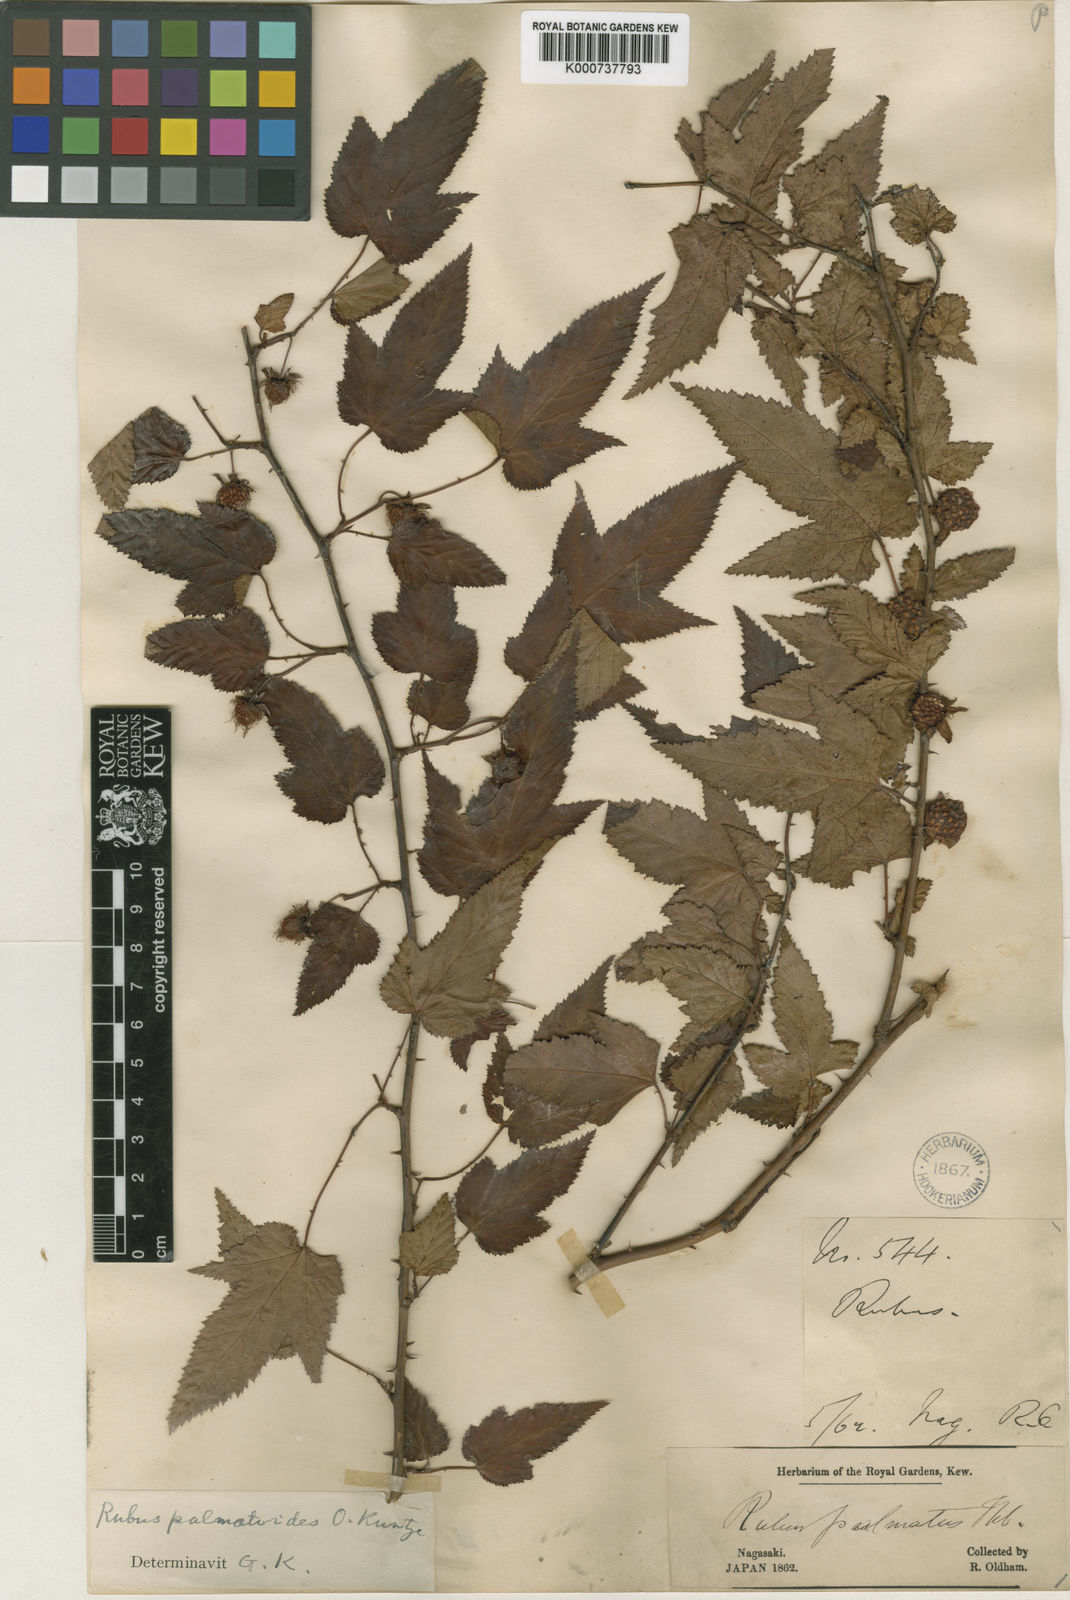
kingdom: Plantae
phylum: Tracheophyta
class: Magnoliopsida
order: Rosales
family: Rosaceae
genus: Rubus
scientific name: Rubus palmatus
